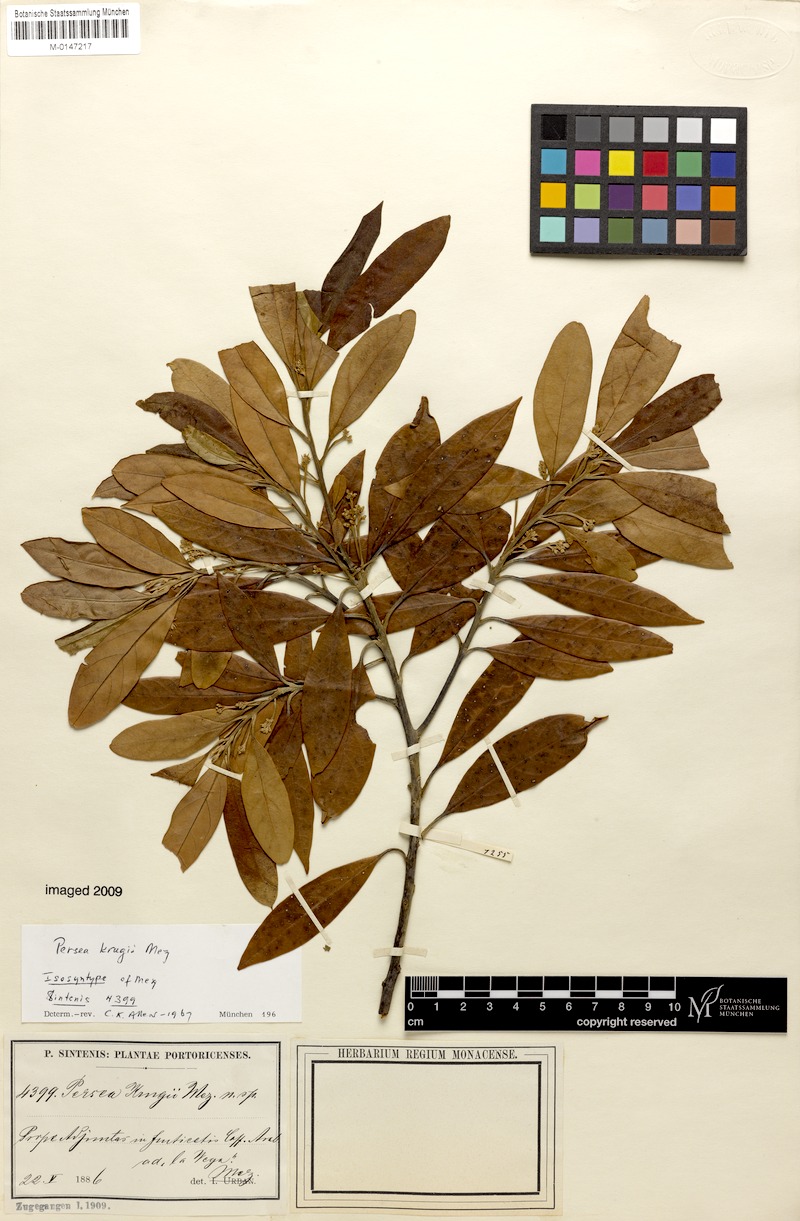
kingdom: Plantae
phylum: Tracheophyta
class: Magnoliopsida
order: Laurales
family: Lauraceae
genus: Persea
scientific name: Persea krugii
